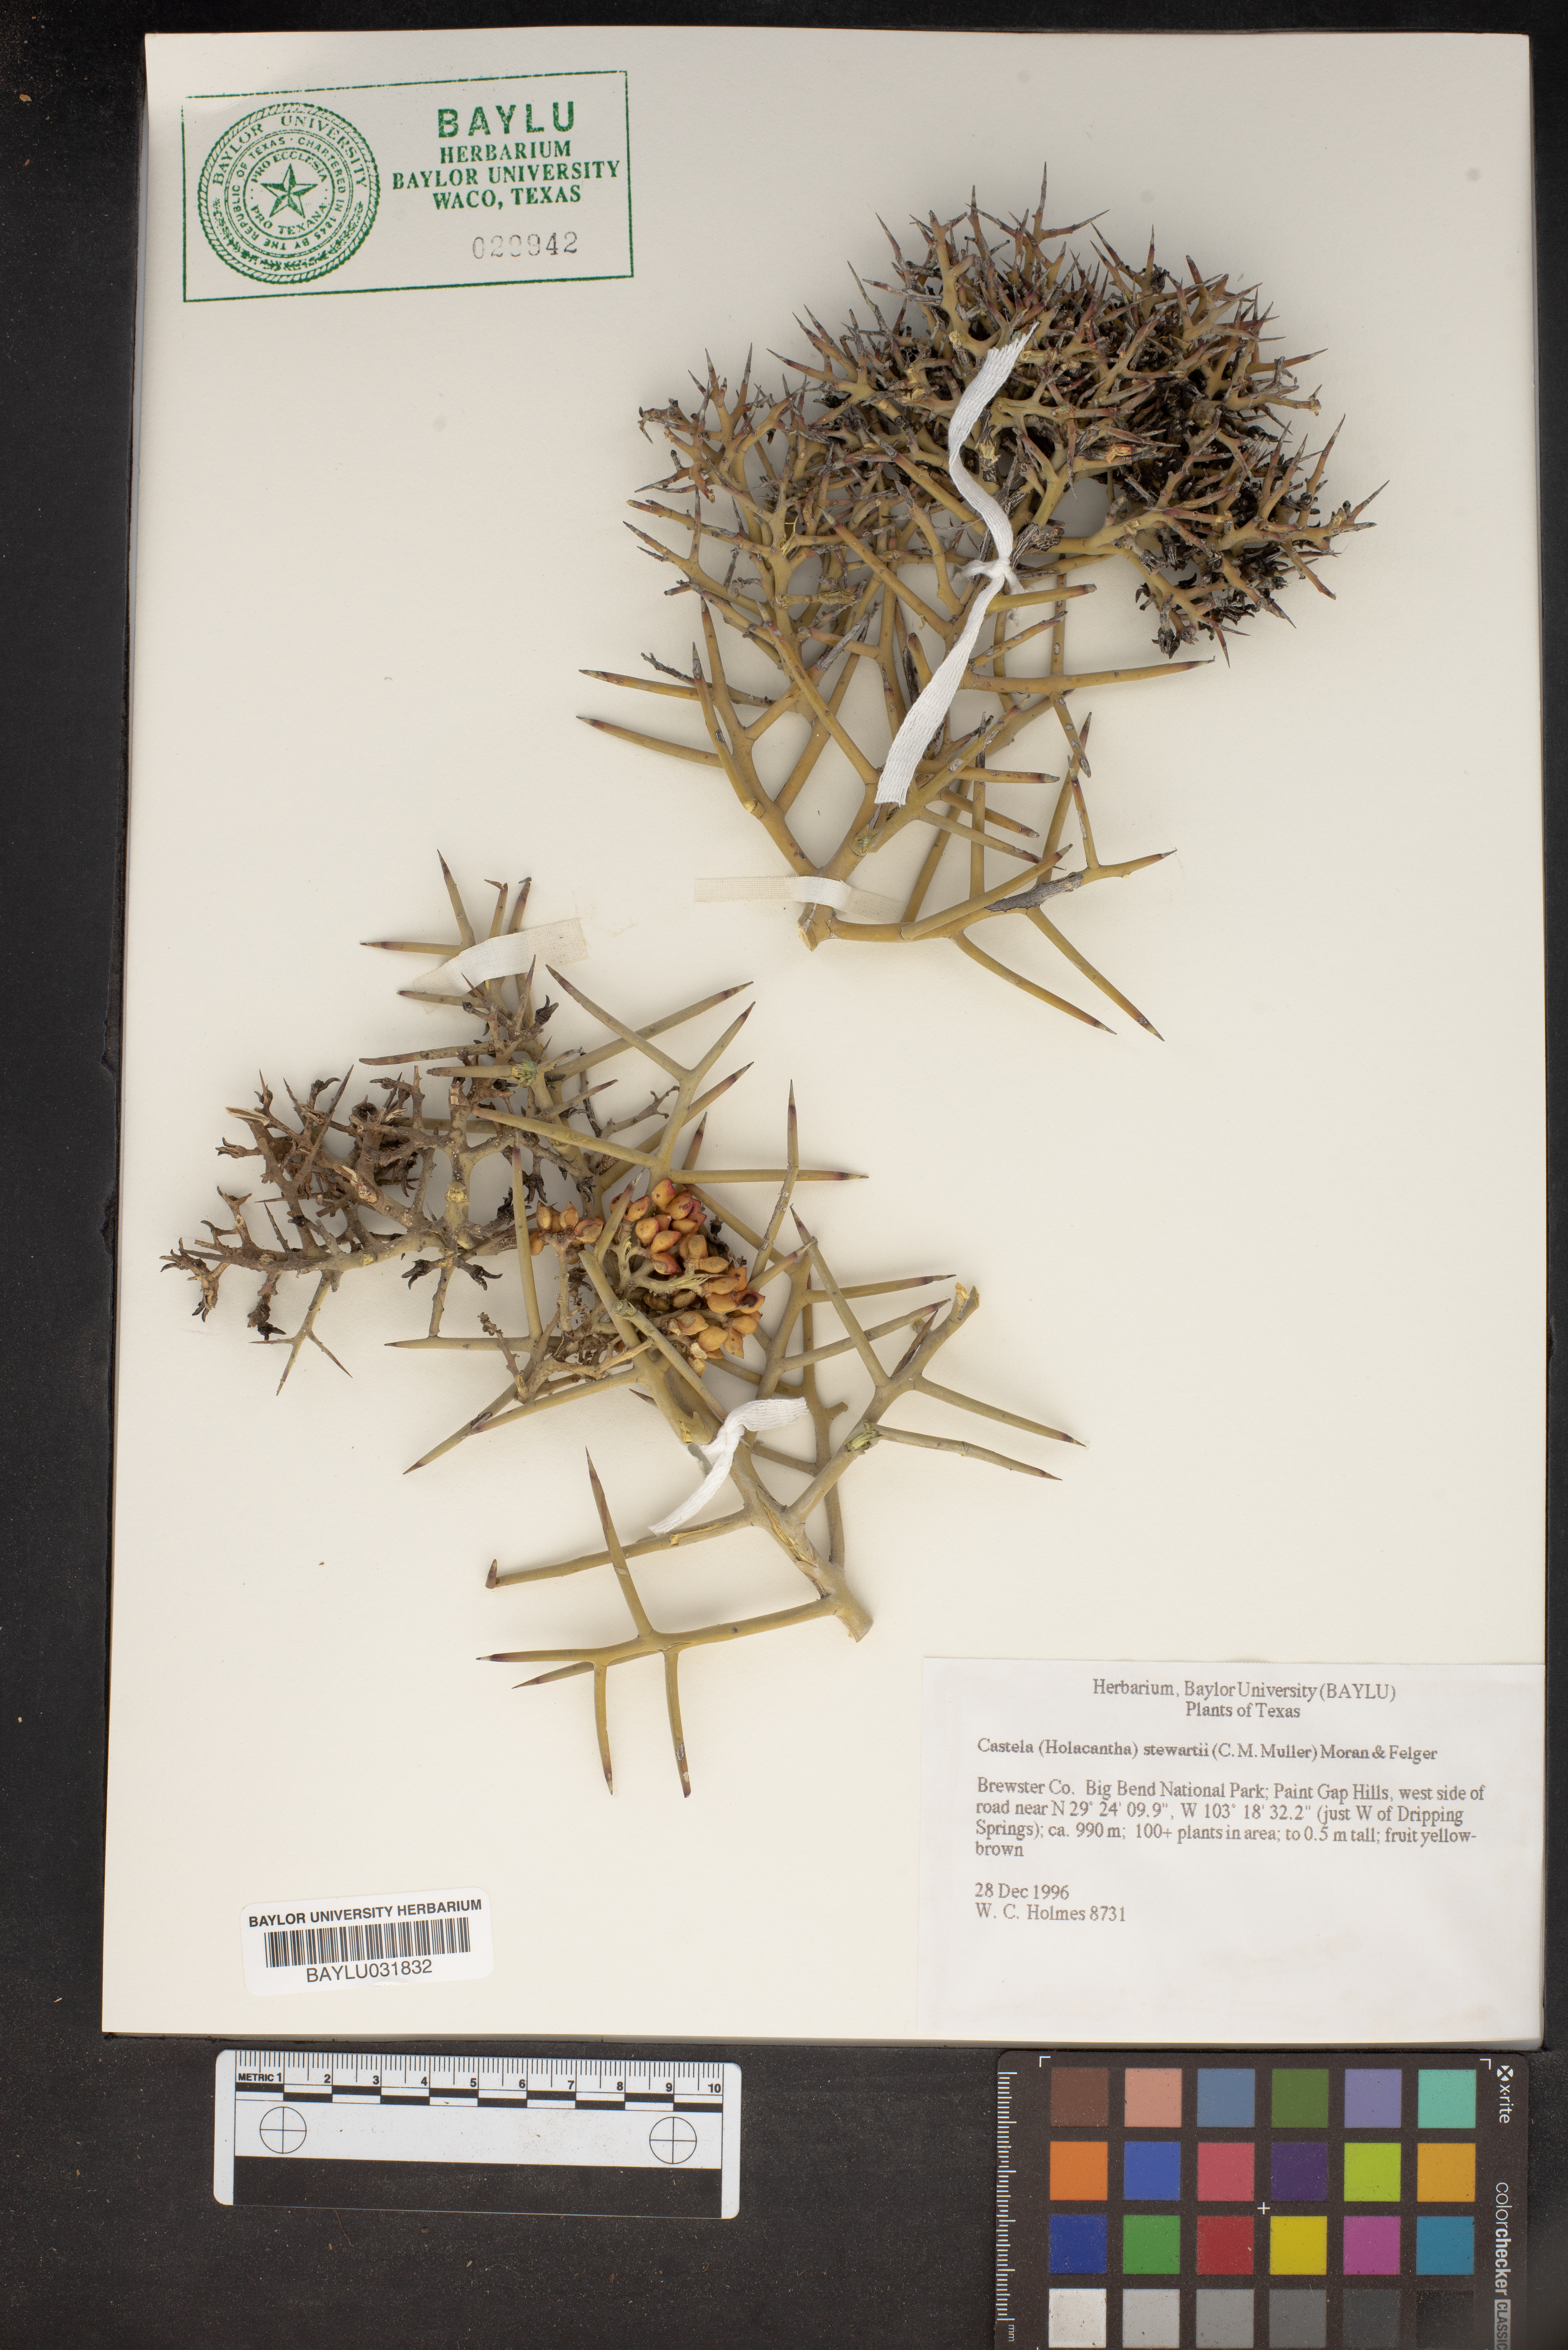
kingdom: Plantae
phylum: Tracheophyta
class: Magnoliopsida
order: Sapindales
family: Simaroubaceae
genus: Holacantha
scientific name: Holacantha stewartii
